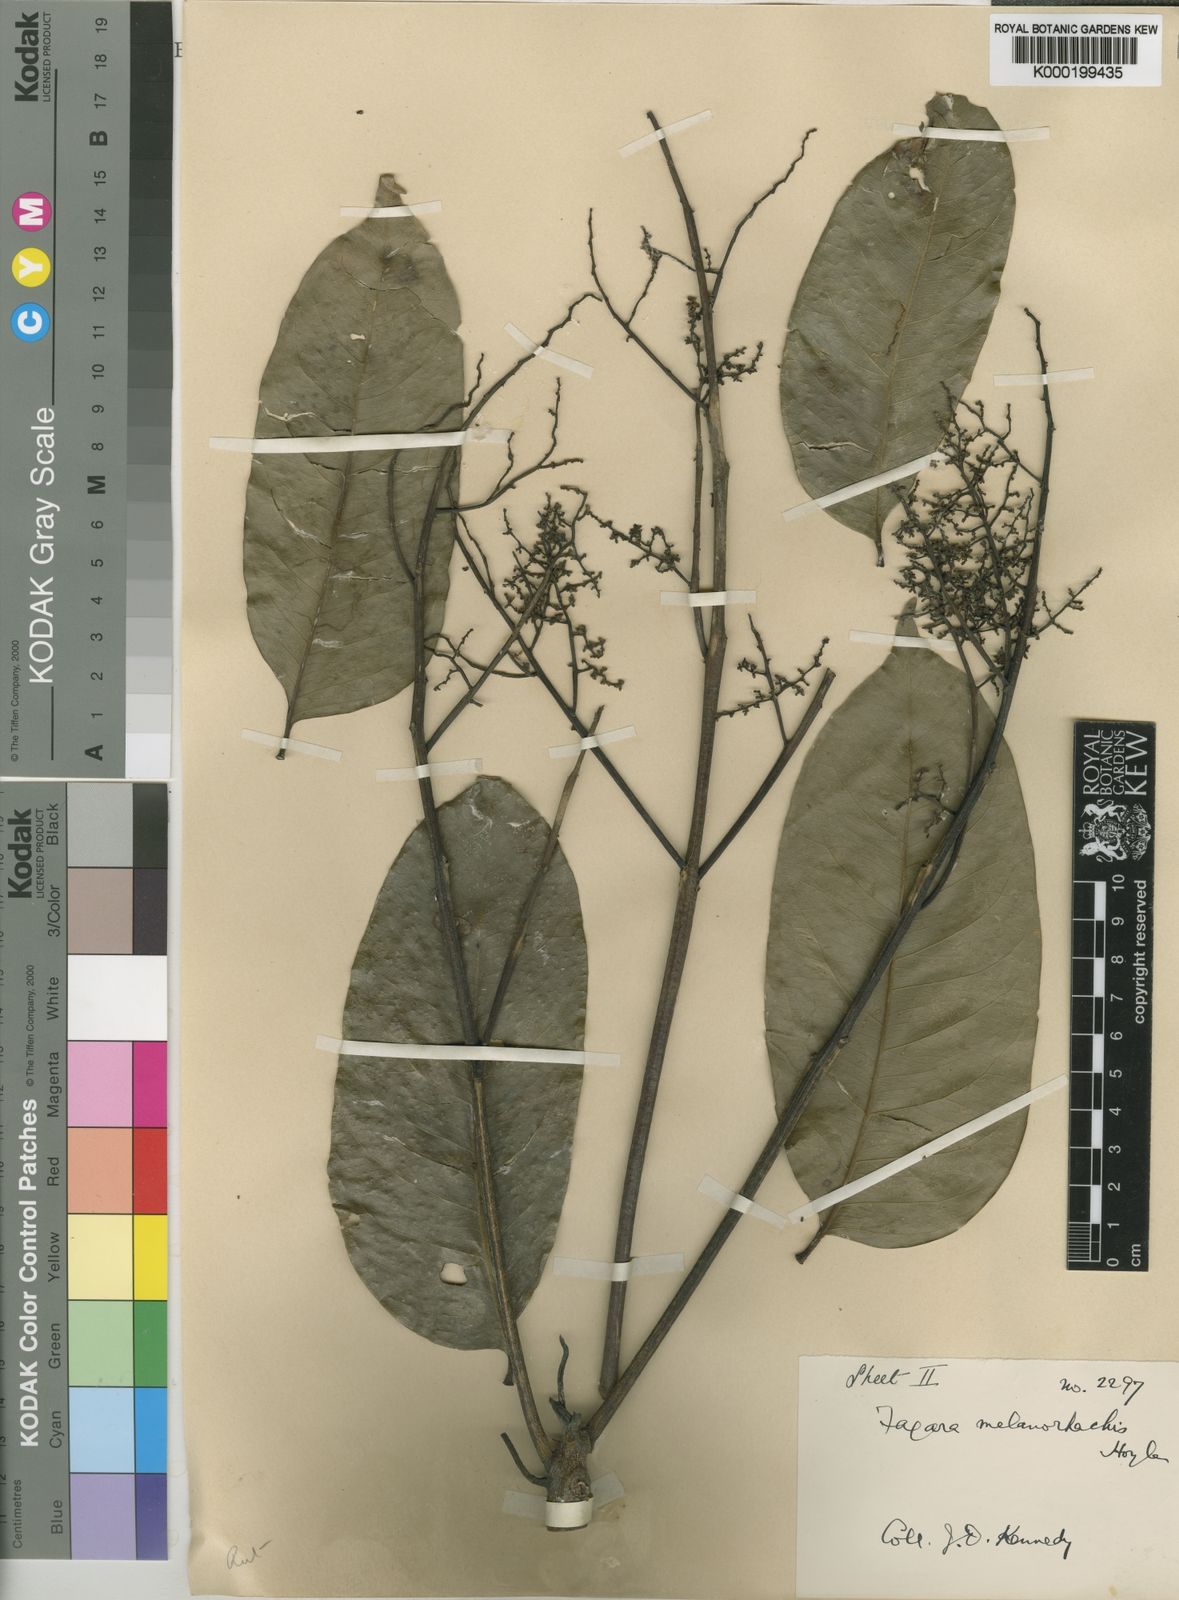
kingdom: Plantae
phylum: Tracheophyta
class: Magnoliopsida
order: Sapindales
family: Rutaceae
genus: Zanthoxylum
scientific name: Zanthoxylum gilletii
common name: African satinwood
